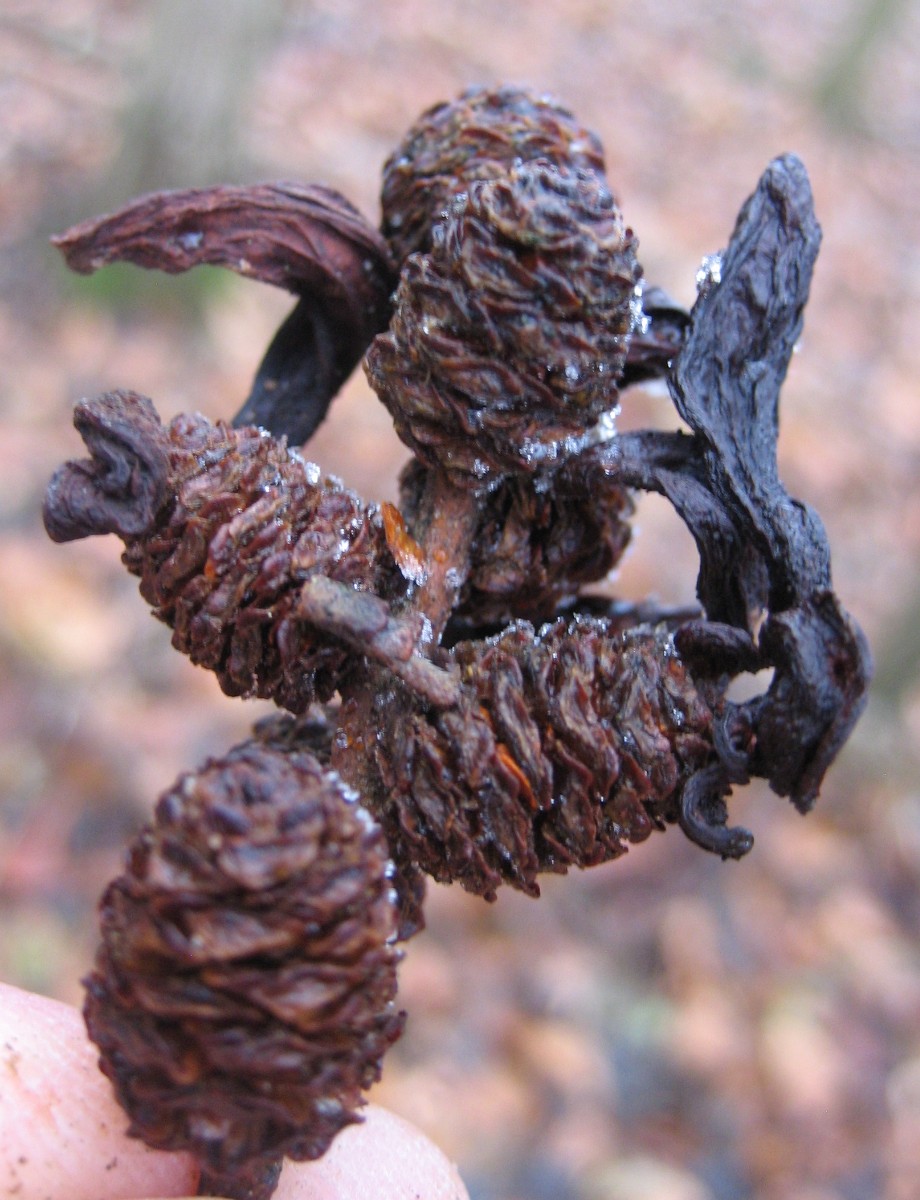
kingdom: Fungi
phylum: Ascomycota
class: Taphrinomycetes
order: Taphrinales
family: Taphrinaceae
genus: Taphrina
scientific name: Taphrina alni
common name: Alder tongue
